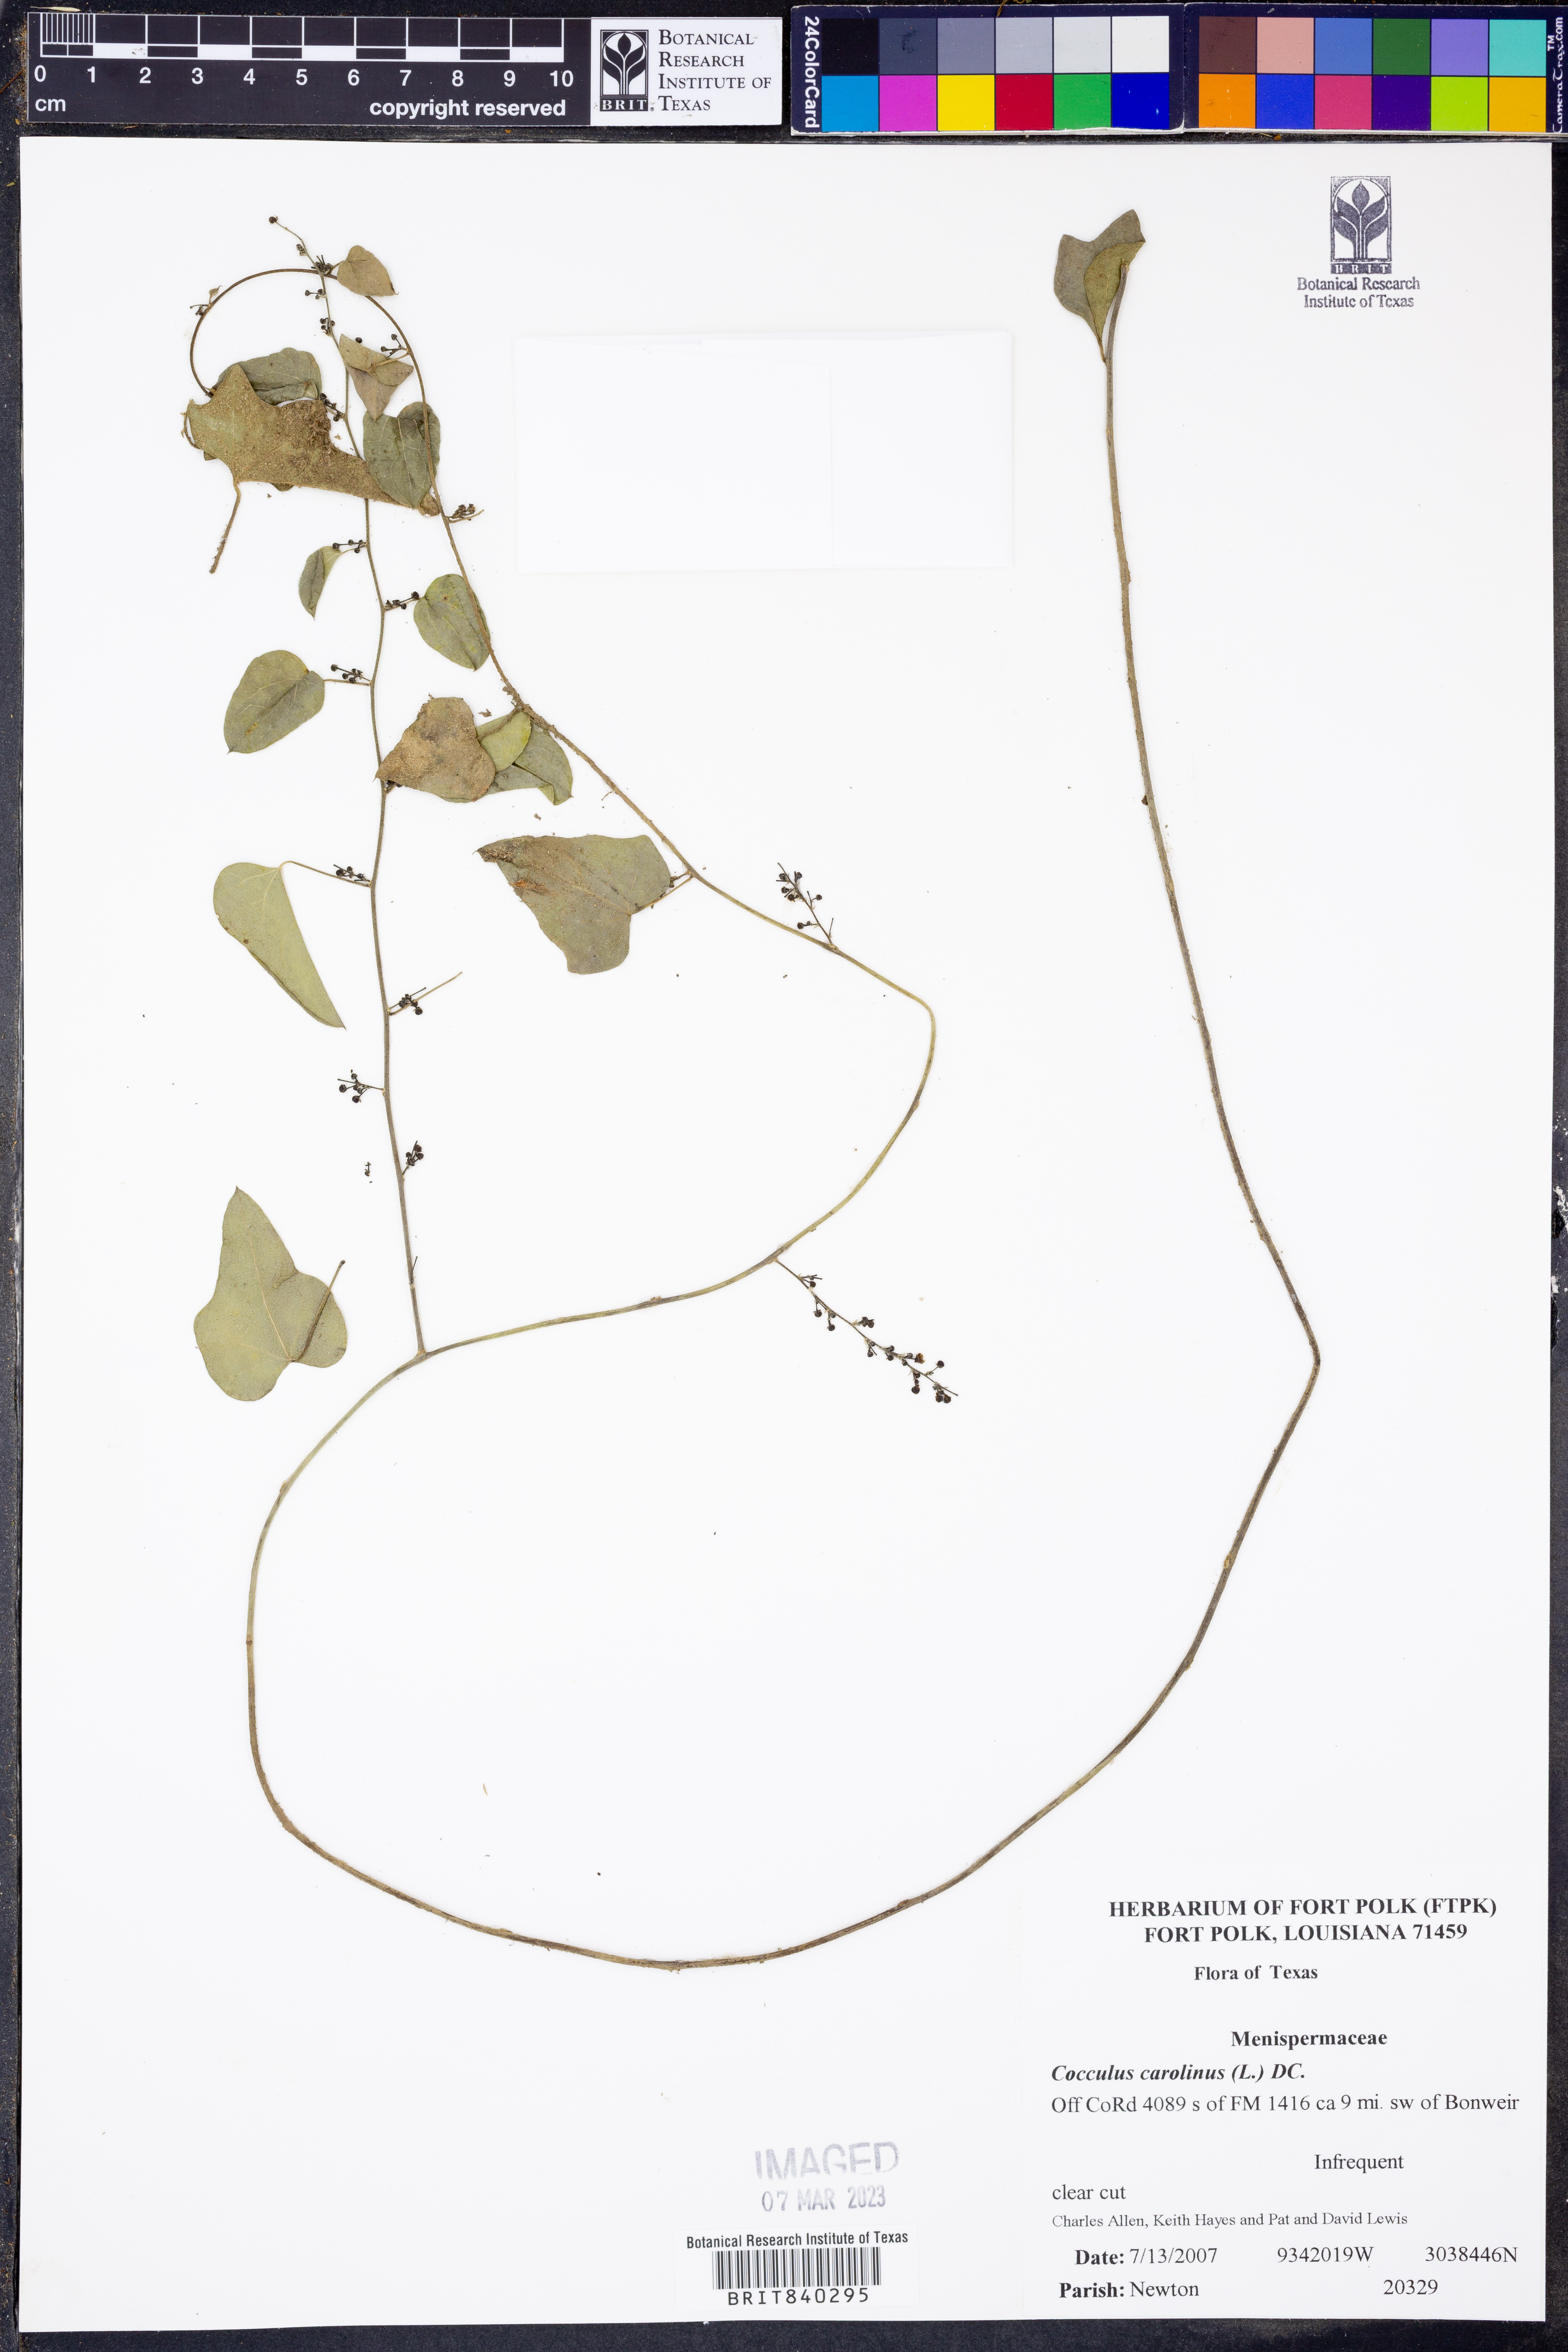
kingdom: Plantae
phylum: Tracheophyta
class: Magnoliopsida
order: Ranunculales
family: Menispermaceae
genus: Cocculus
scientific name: Cocculus carolinus
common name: Carolina moonseed
